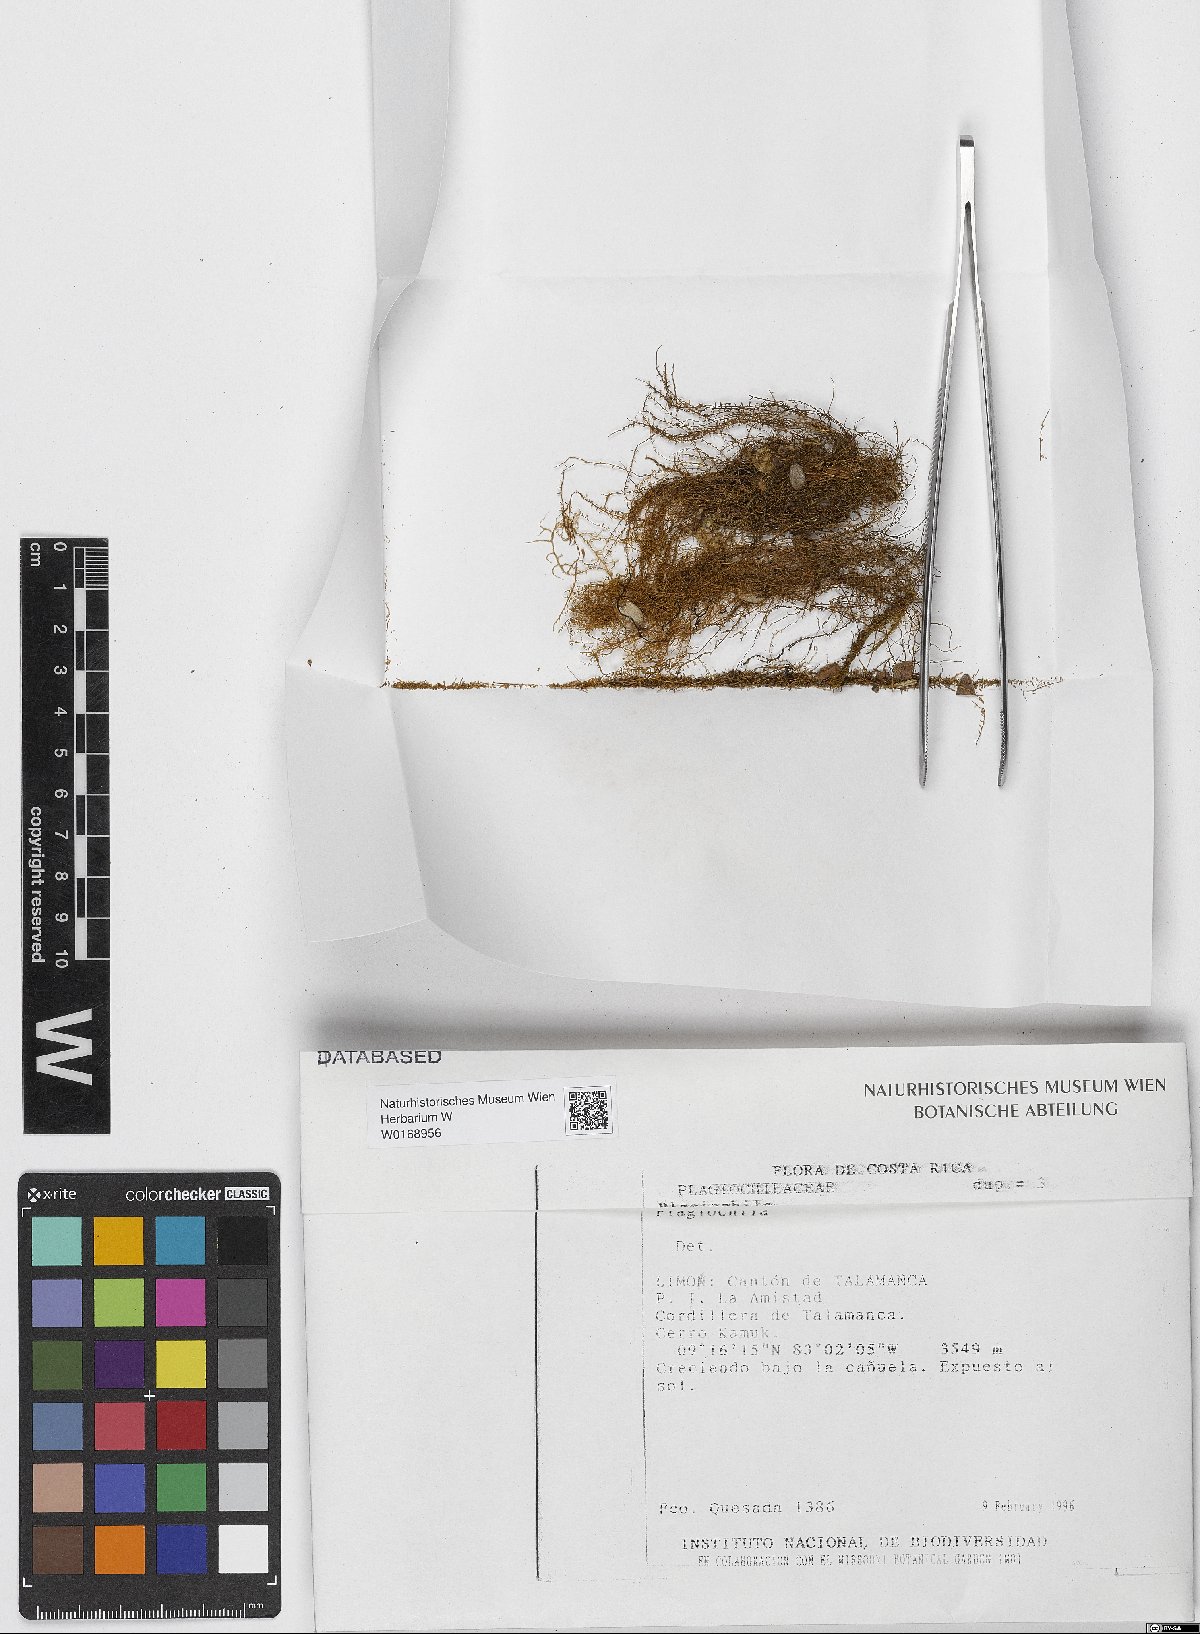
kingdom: Plantae
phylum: Marchantiophyta
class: Jungermanniopsida
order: Jungermanniales
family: Plagiochilaceae
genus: Plagiochila
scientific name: Plagiochila
